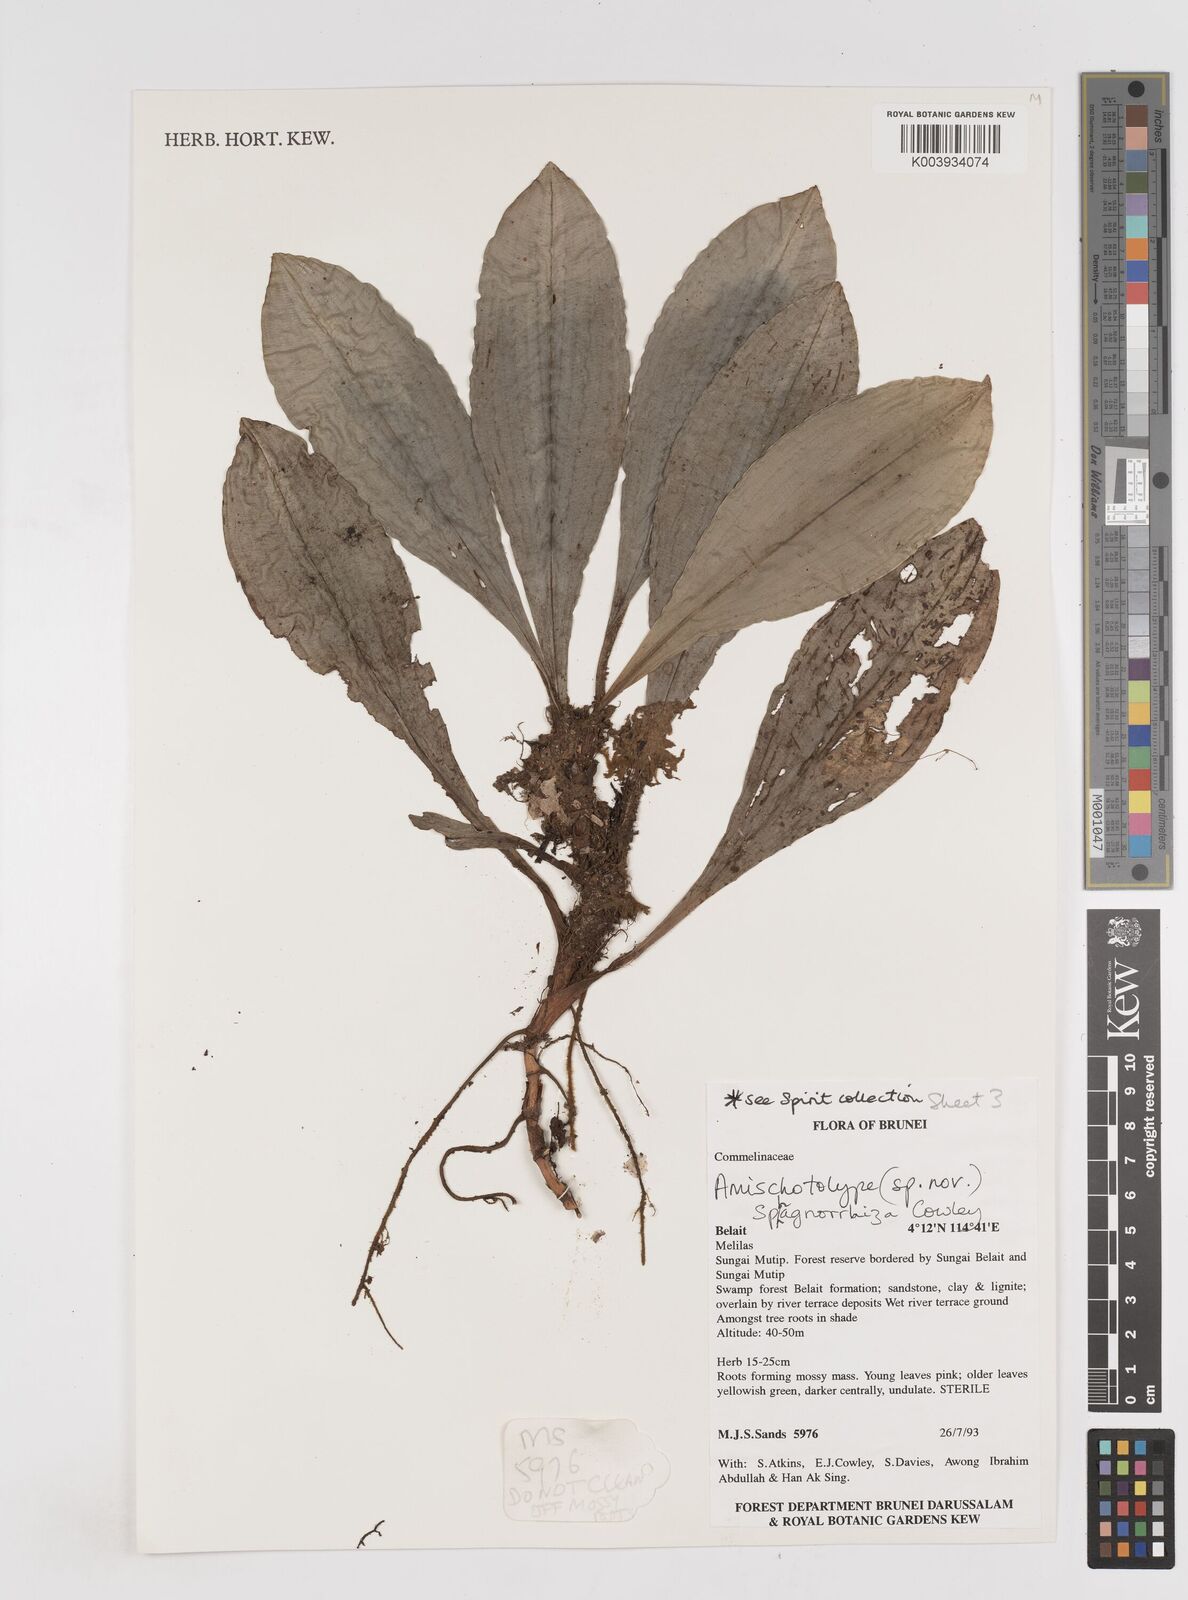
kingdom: Plantae
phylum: Tracheophyta
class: Liliopsida
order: Commelinales
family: Commelinaceae
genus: Amischotolype
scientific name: Amischotolype sphagnorrhiza
